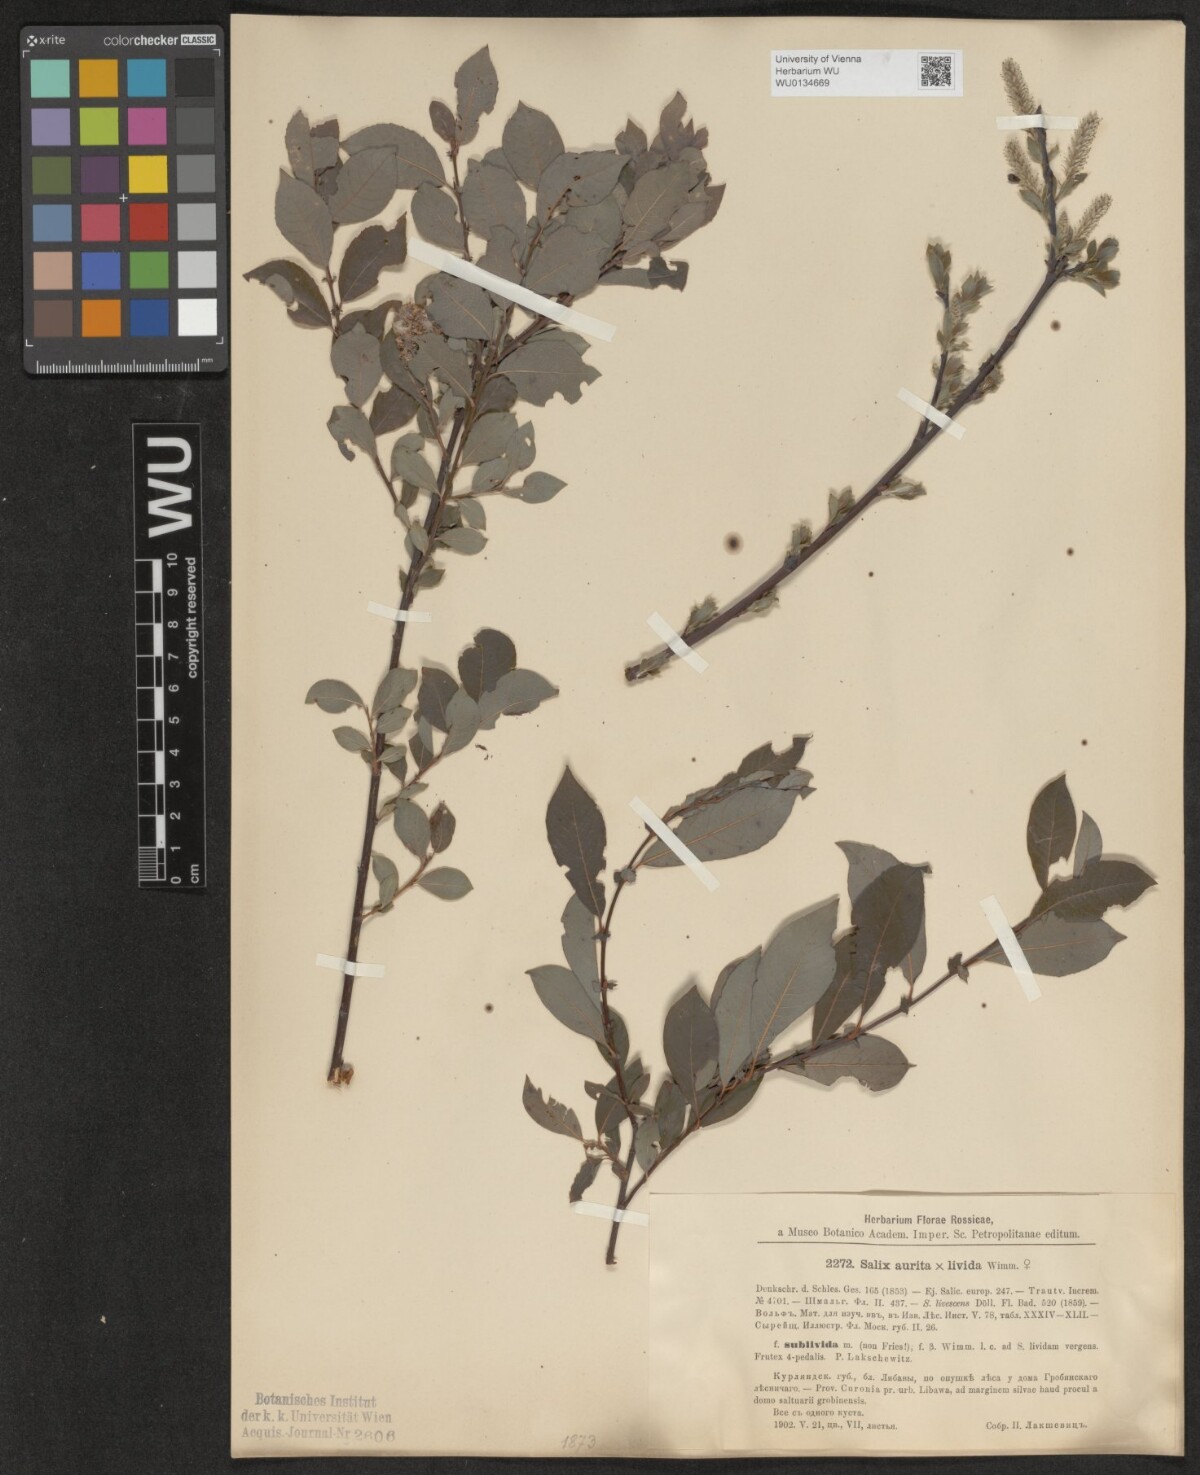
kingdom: Plantae
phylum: Tracheophyta
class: Magnoliopsida
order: Malpighiales
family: Salicaceae
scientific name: Salicaceae
